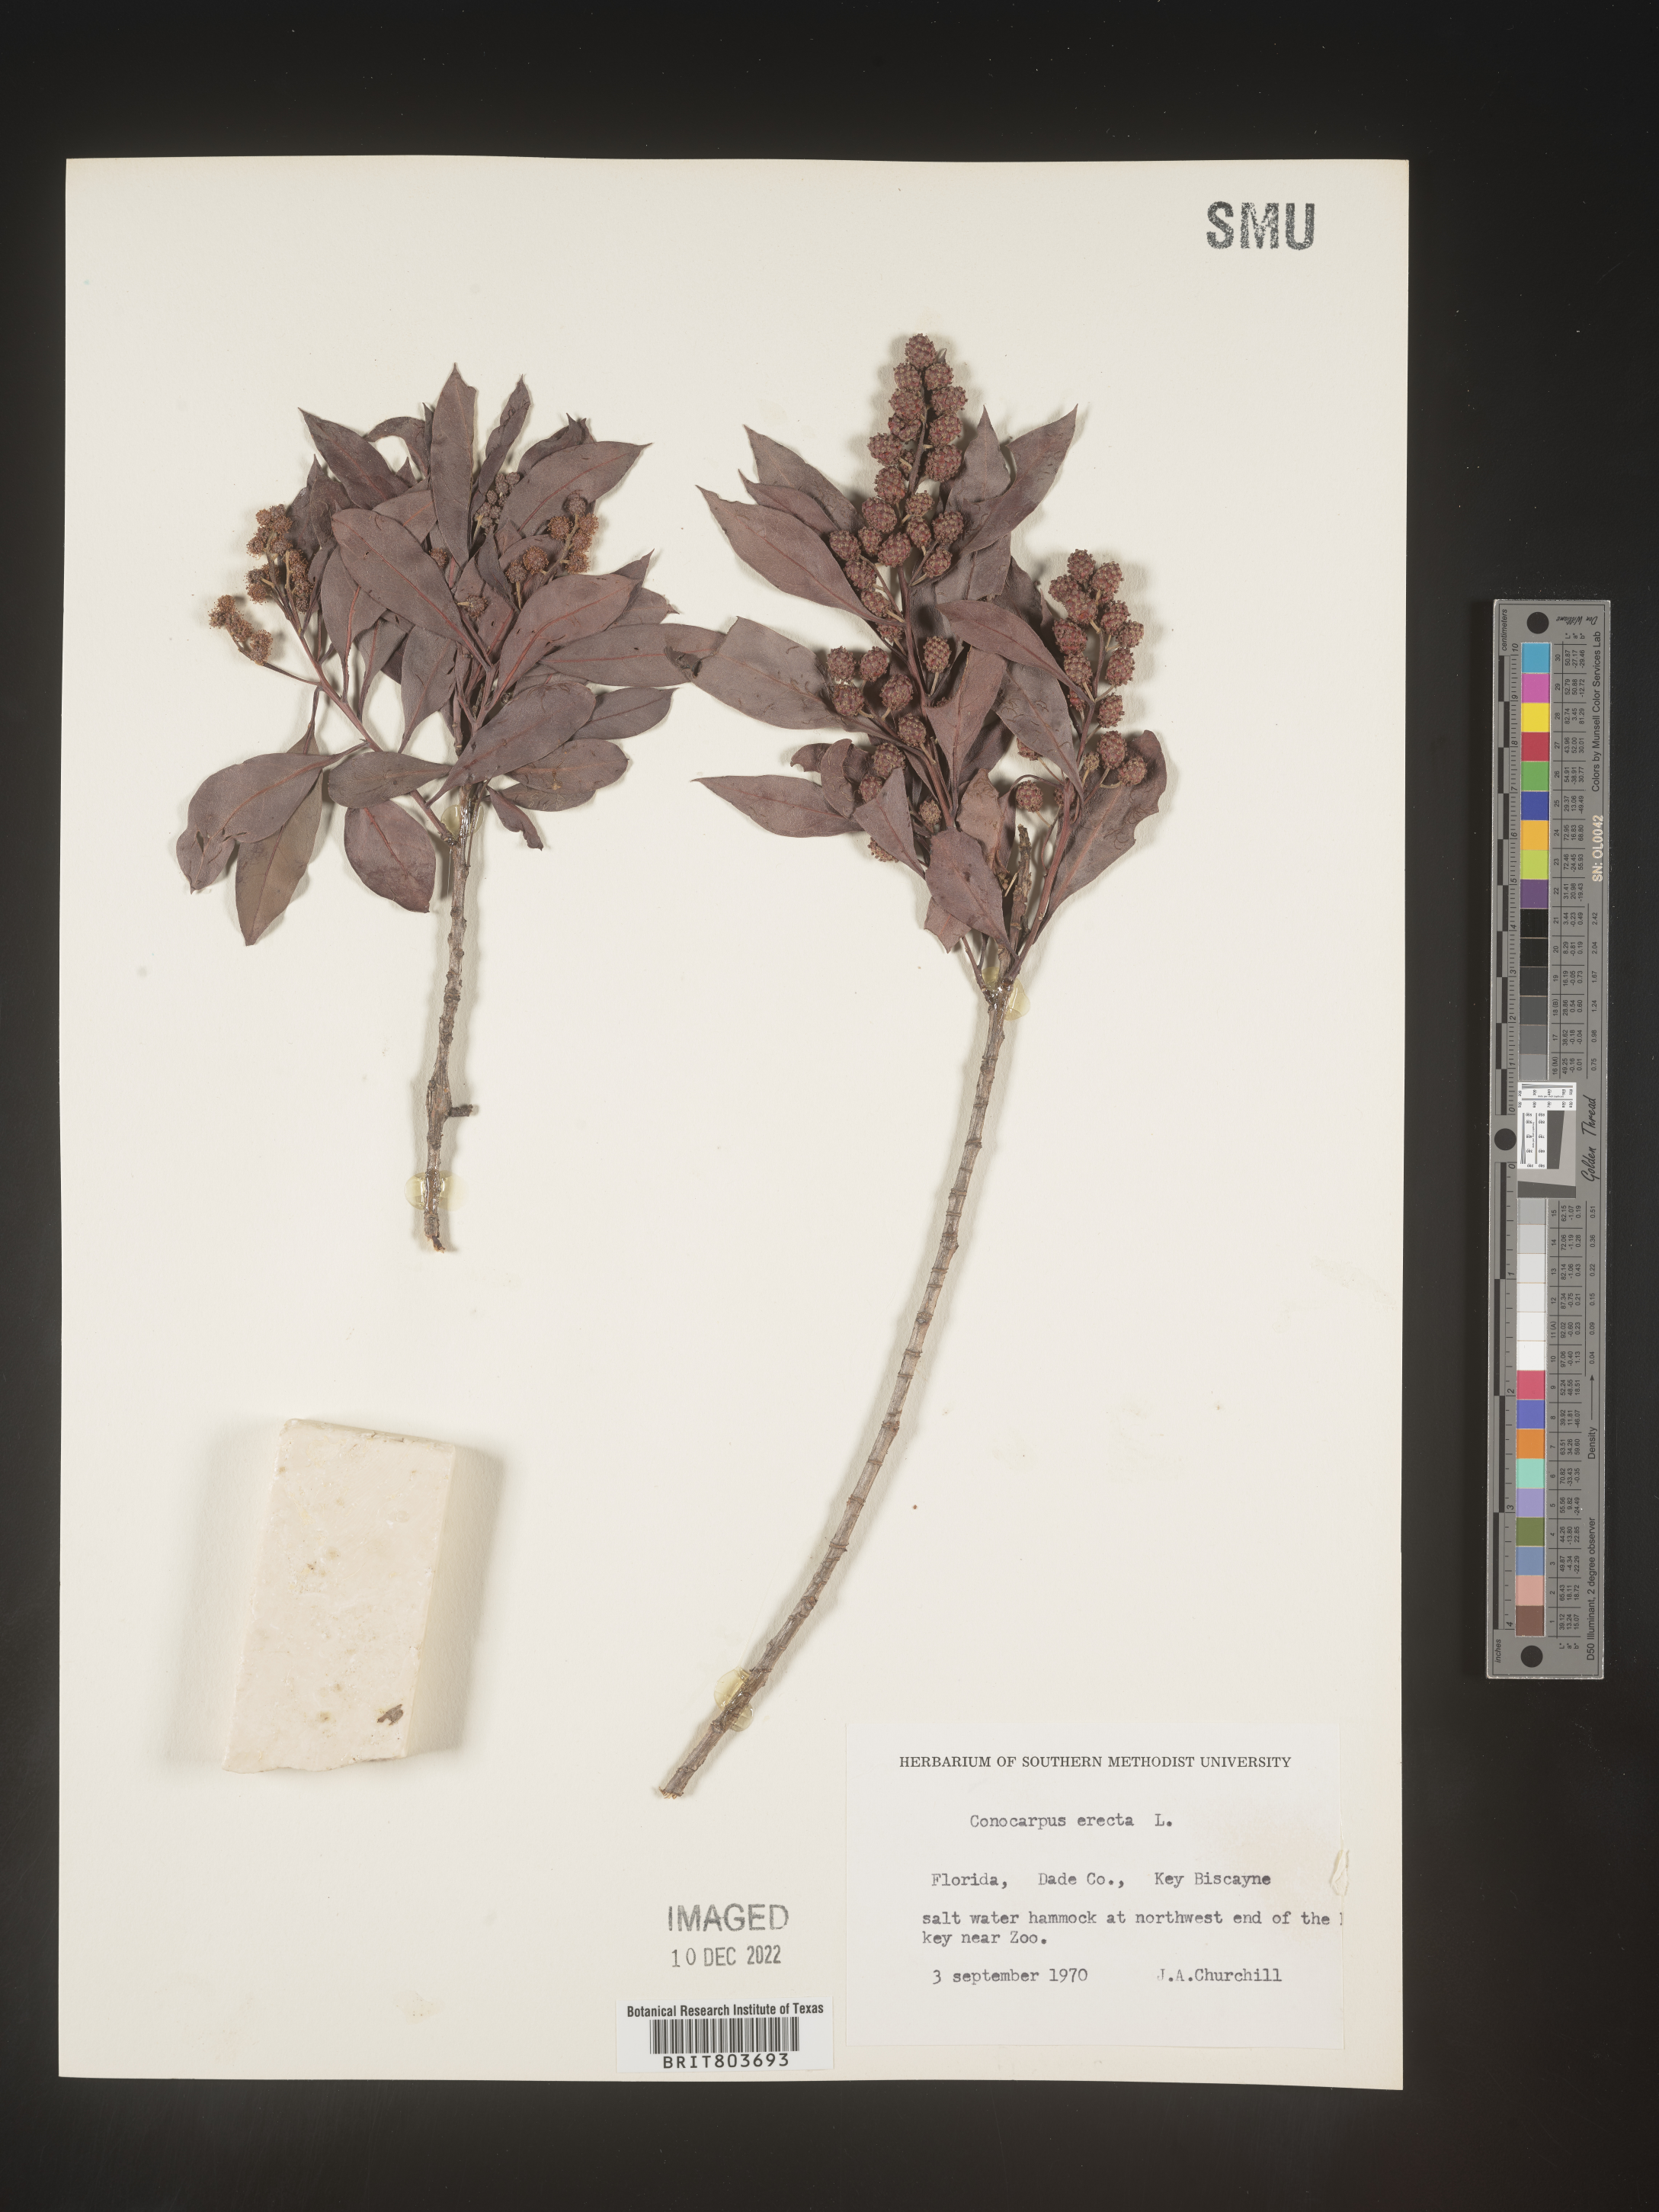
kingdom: Plantae
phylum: Tracheophyta
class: Magnoliopsida
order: Myrtales
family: Combretaceae
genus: Conocarpus
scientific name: Conocarpus erectus
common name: Button mangrove
